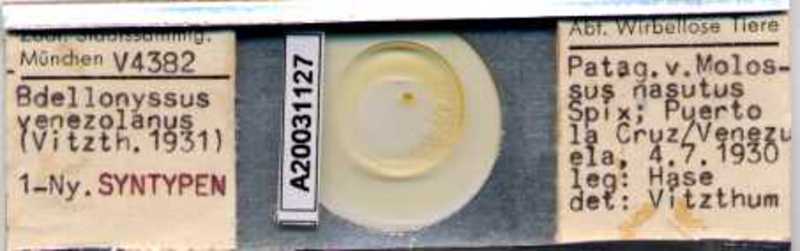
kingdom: Animalia
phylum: Arthropoda
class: Arachnida
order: Mesostigmata
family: Macronyssidae
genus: Chiroptonyssus
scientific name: Chiroptonyssus venezolanus
